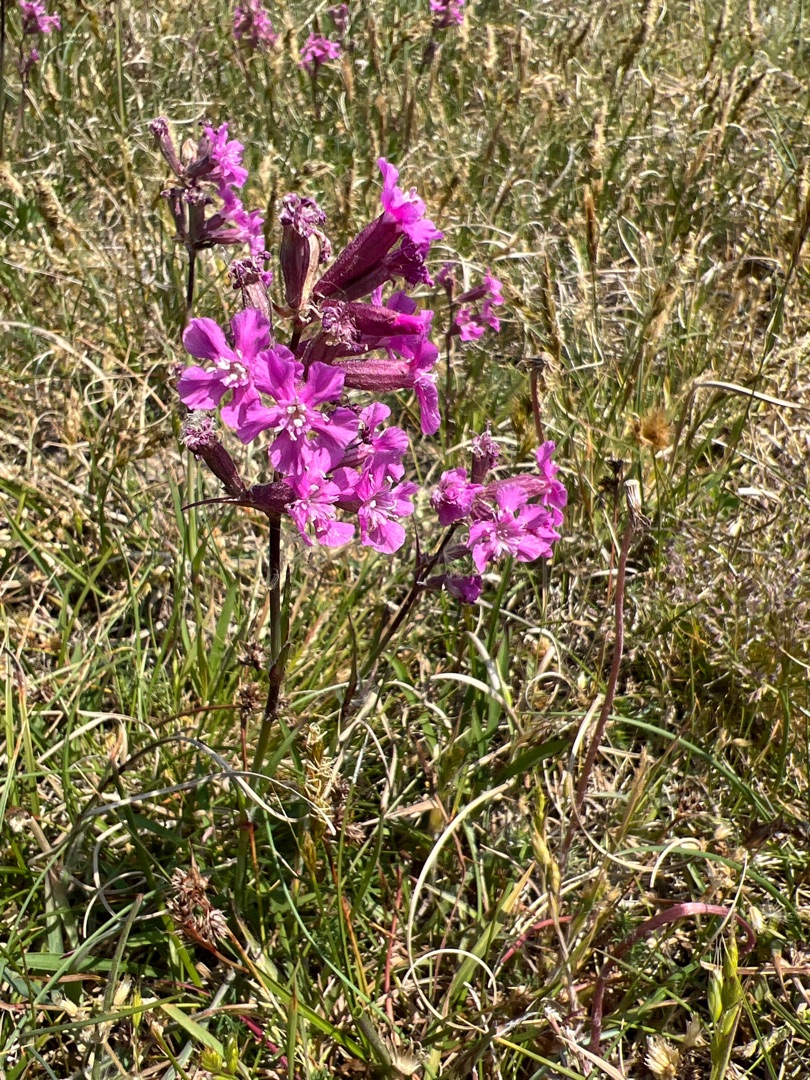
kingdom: Plantae
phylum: Tracheophyta
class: Magnoliopsida
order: Caryophyllales
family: Caryophyllaceae
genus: Viscaria
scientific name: Viscaria vulgaris
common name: Tjærenellike
